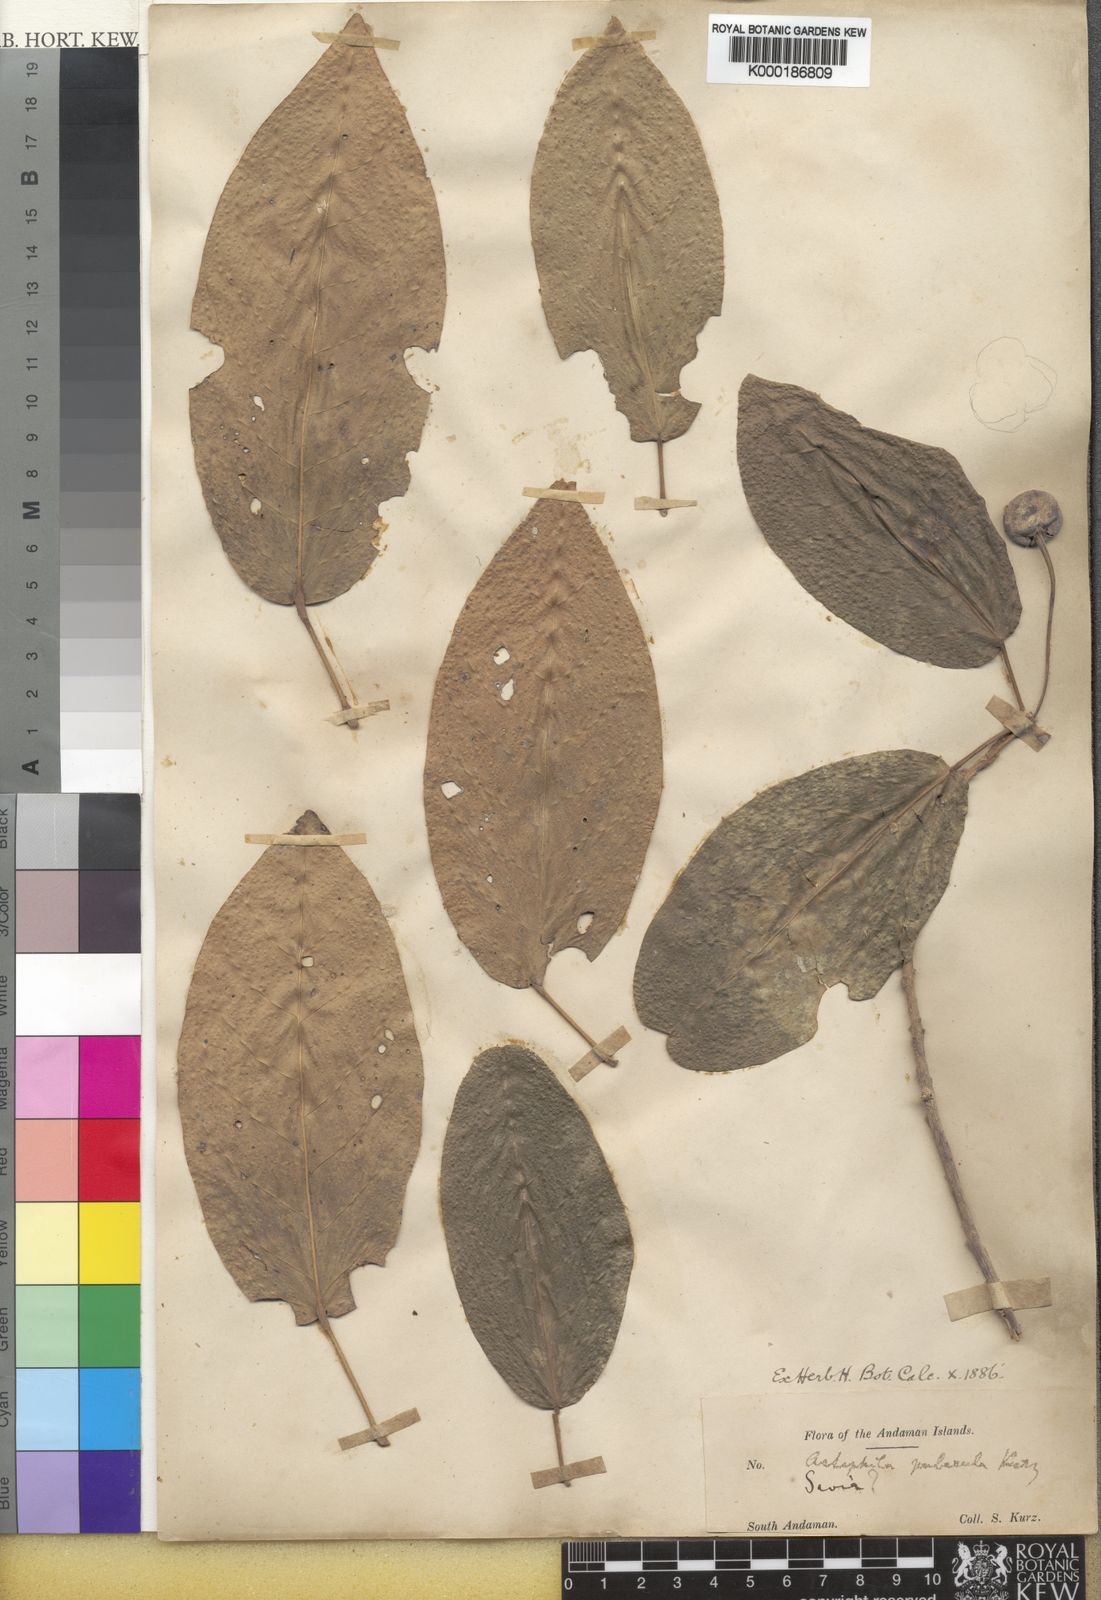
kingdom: Plantae
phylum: Tracheophyta
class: Magnoliopsida
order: Malpighiales
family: Phyllanthaceae
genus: Actephila
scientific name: Actephila
